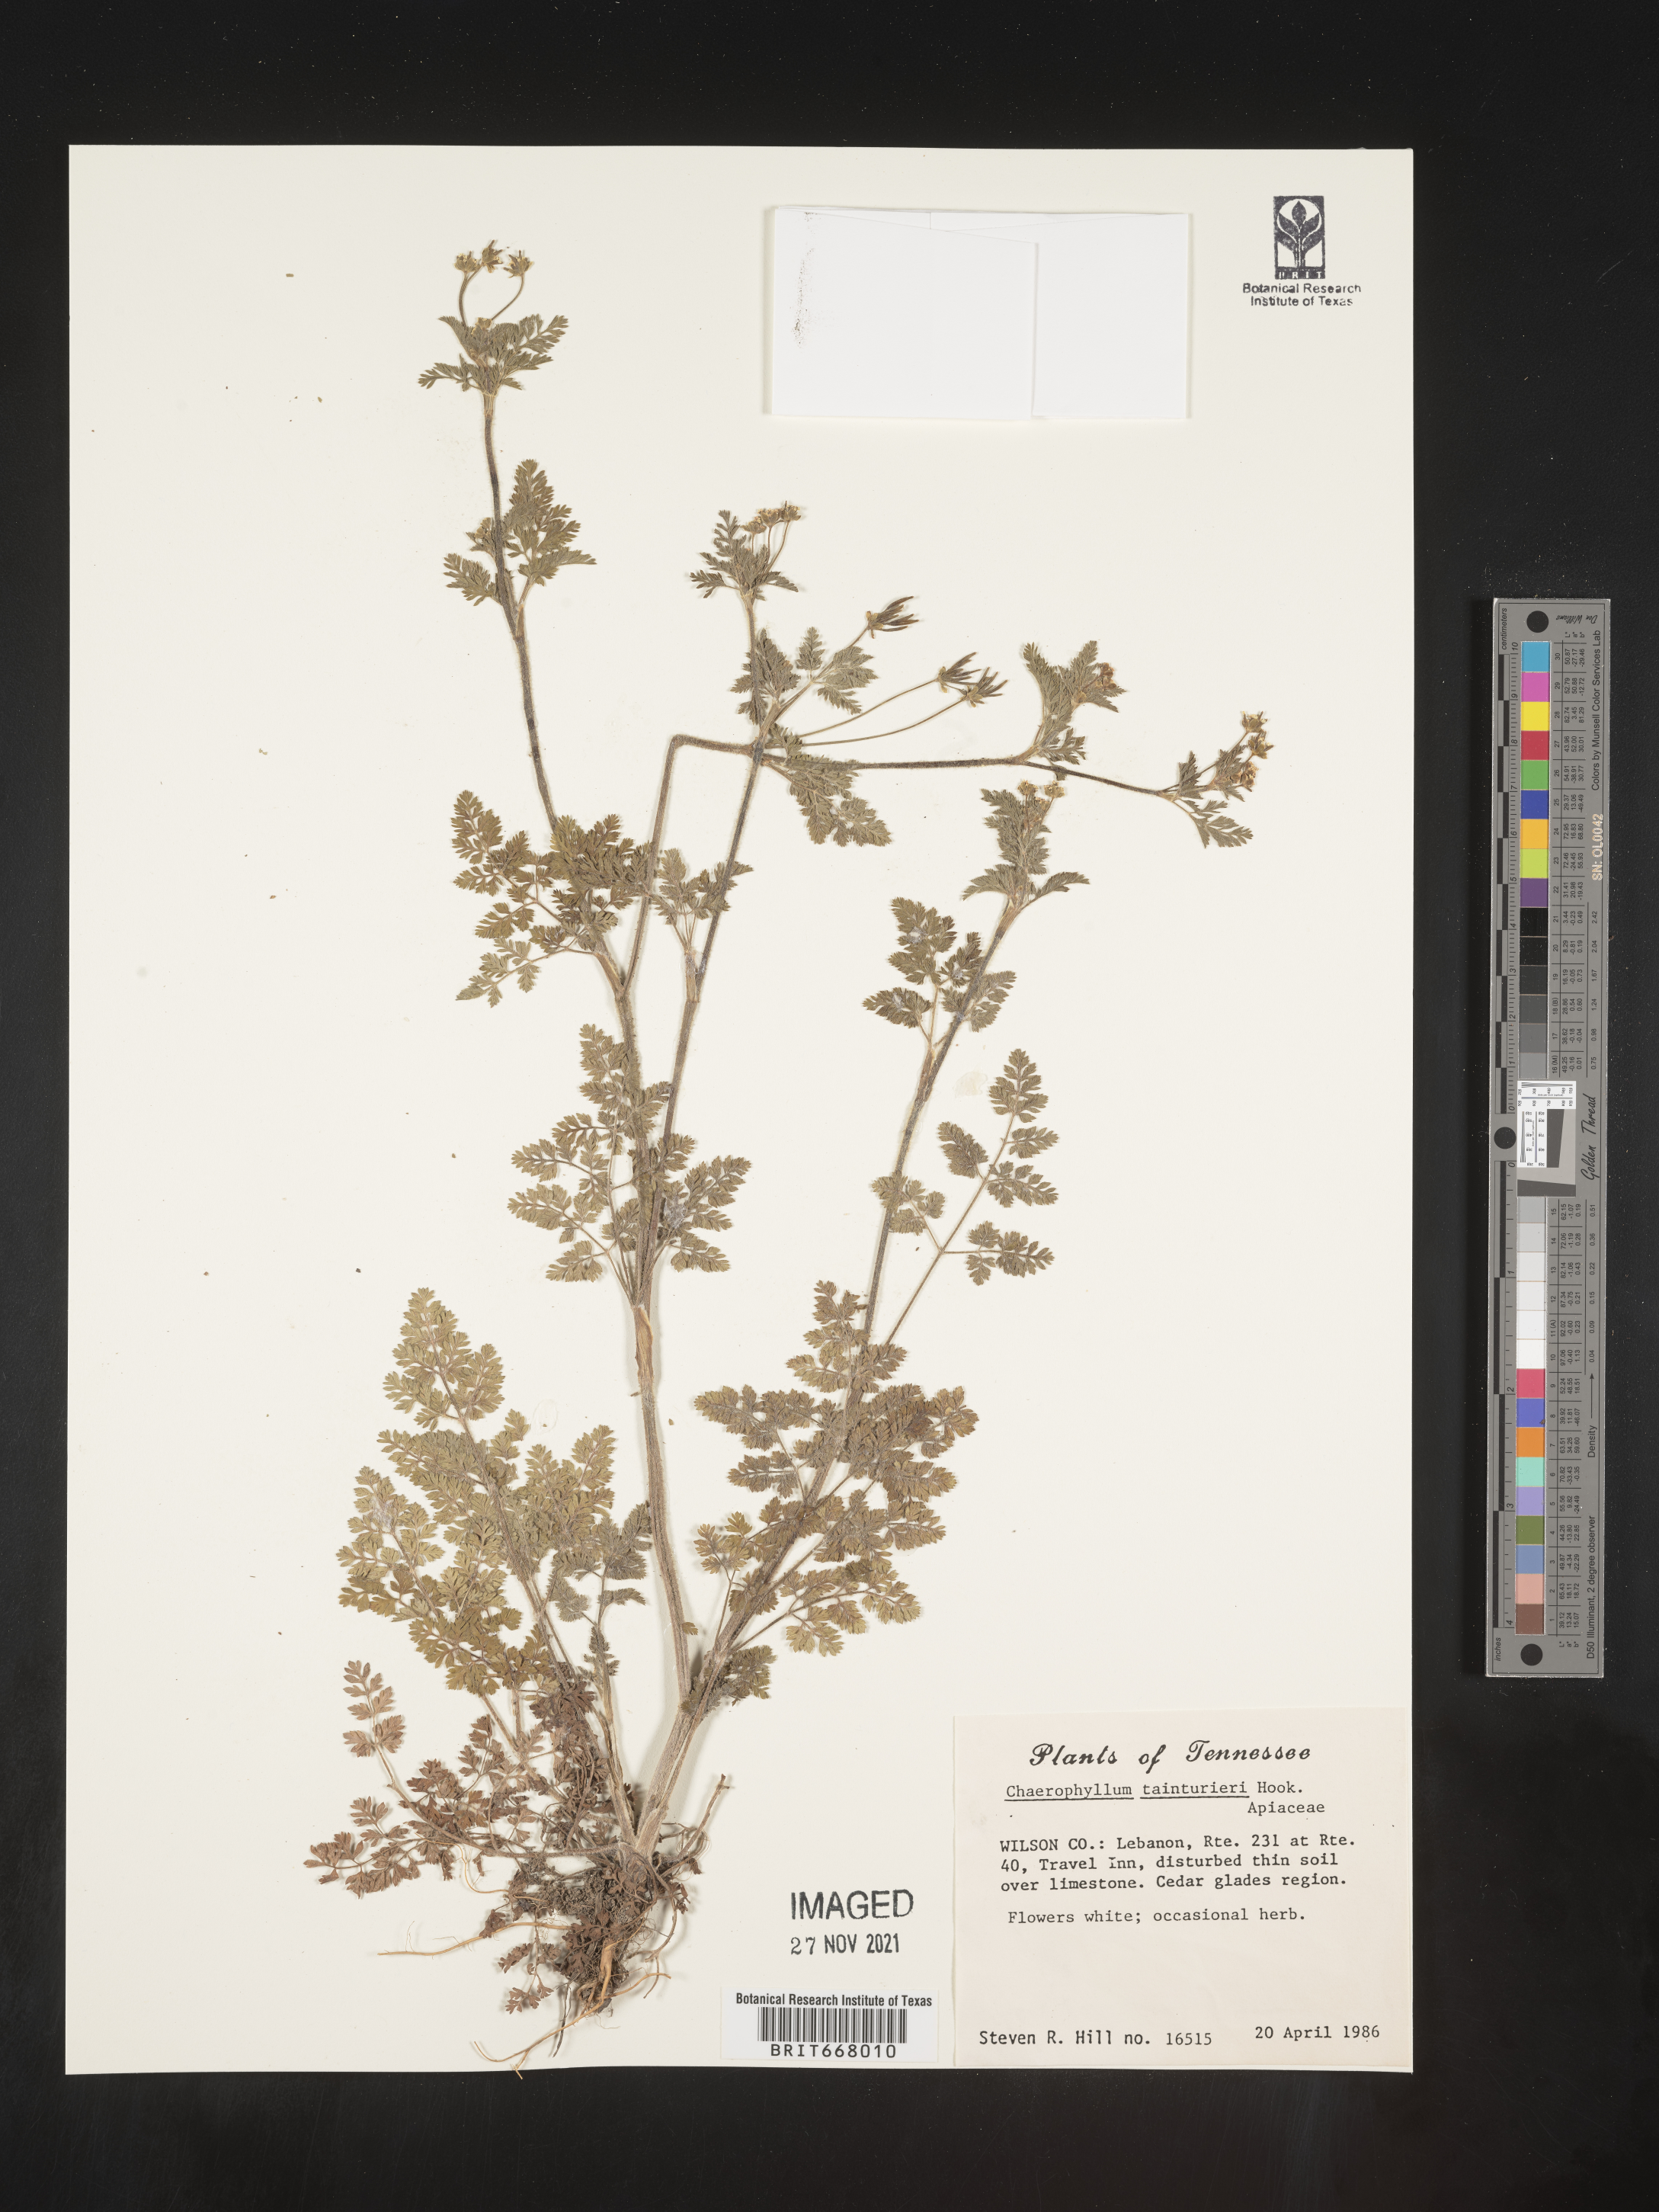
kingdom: Plantae
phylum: Tracheophyta
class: Magnoliopsida
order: Apiales
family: Apiaceae
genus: Chaerophyllum
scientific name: Chaerophyllum tainturieri
